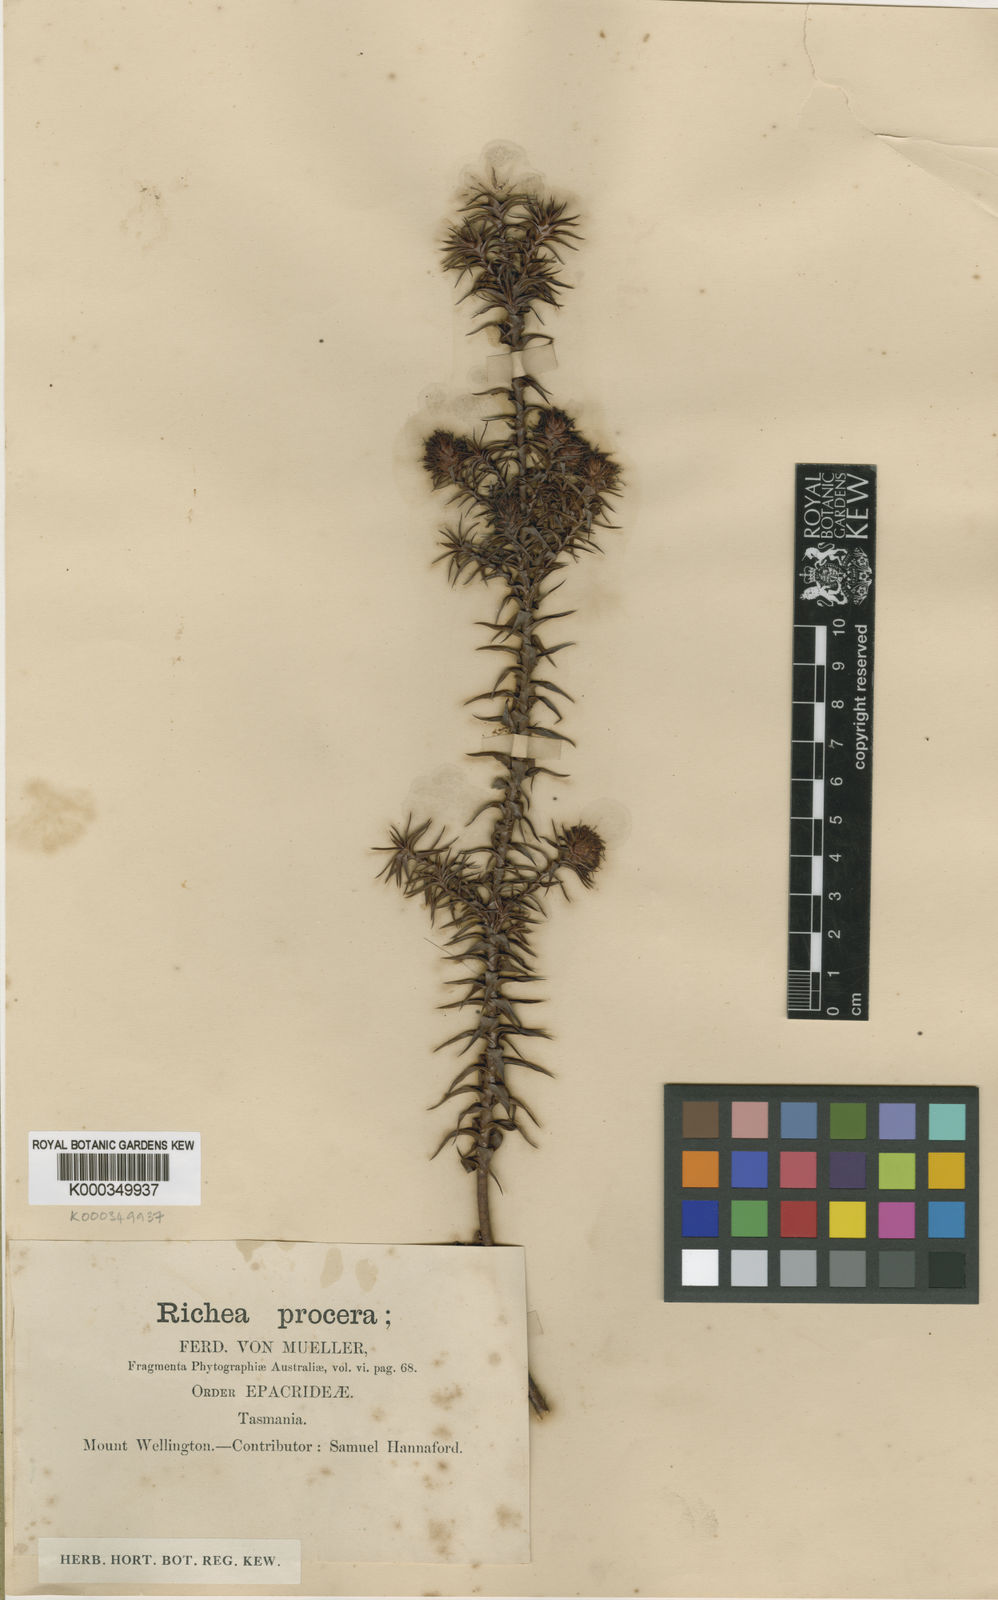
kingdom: Plantae
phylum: Tracheophyta
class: Magnoliopsida
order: Ericales
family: Ericaceae
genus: Dracophyllum
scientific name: Dracophyllum procerum
